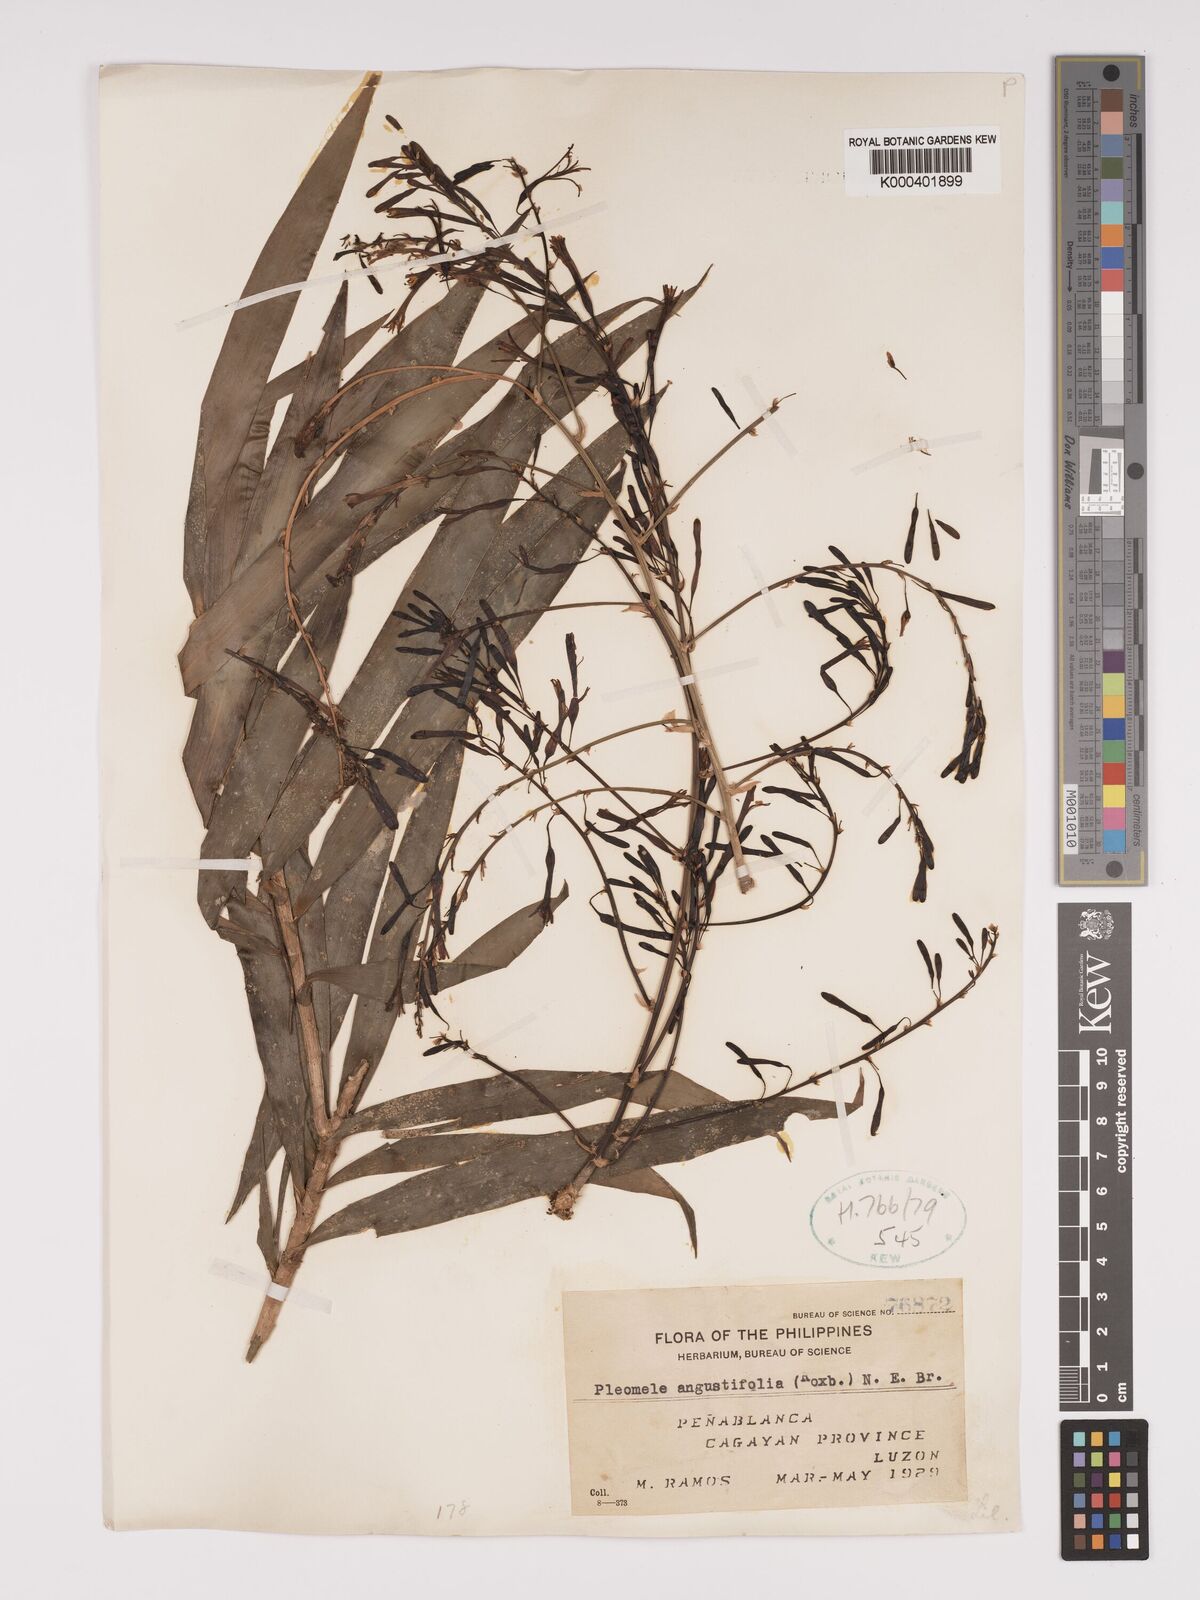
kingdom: Plantae
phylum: Tracheophyta
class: Liliopsida
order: Asparagales
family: Asparagaceae
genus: Dracaena
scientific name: Dracaena angustifolia
